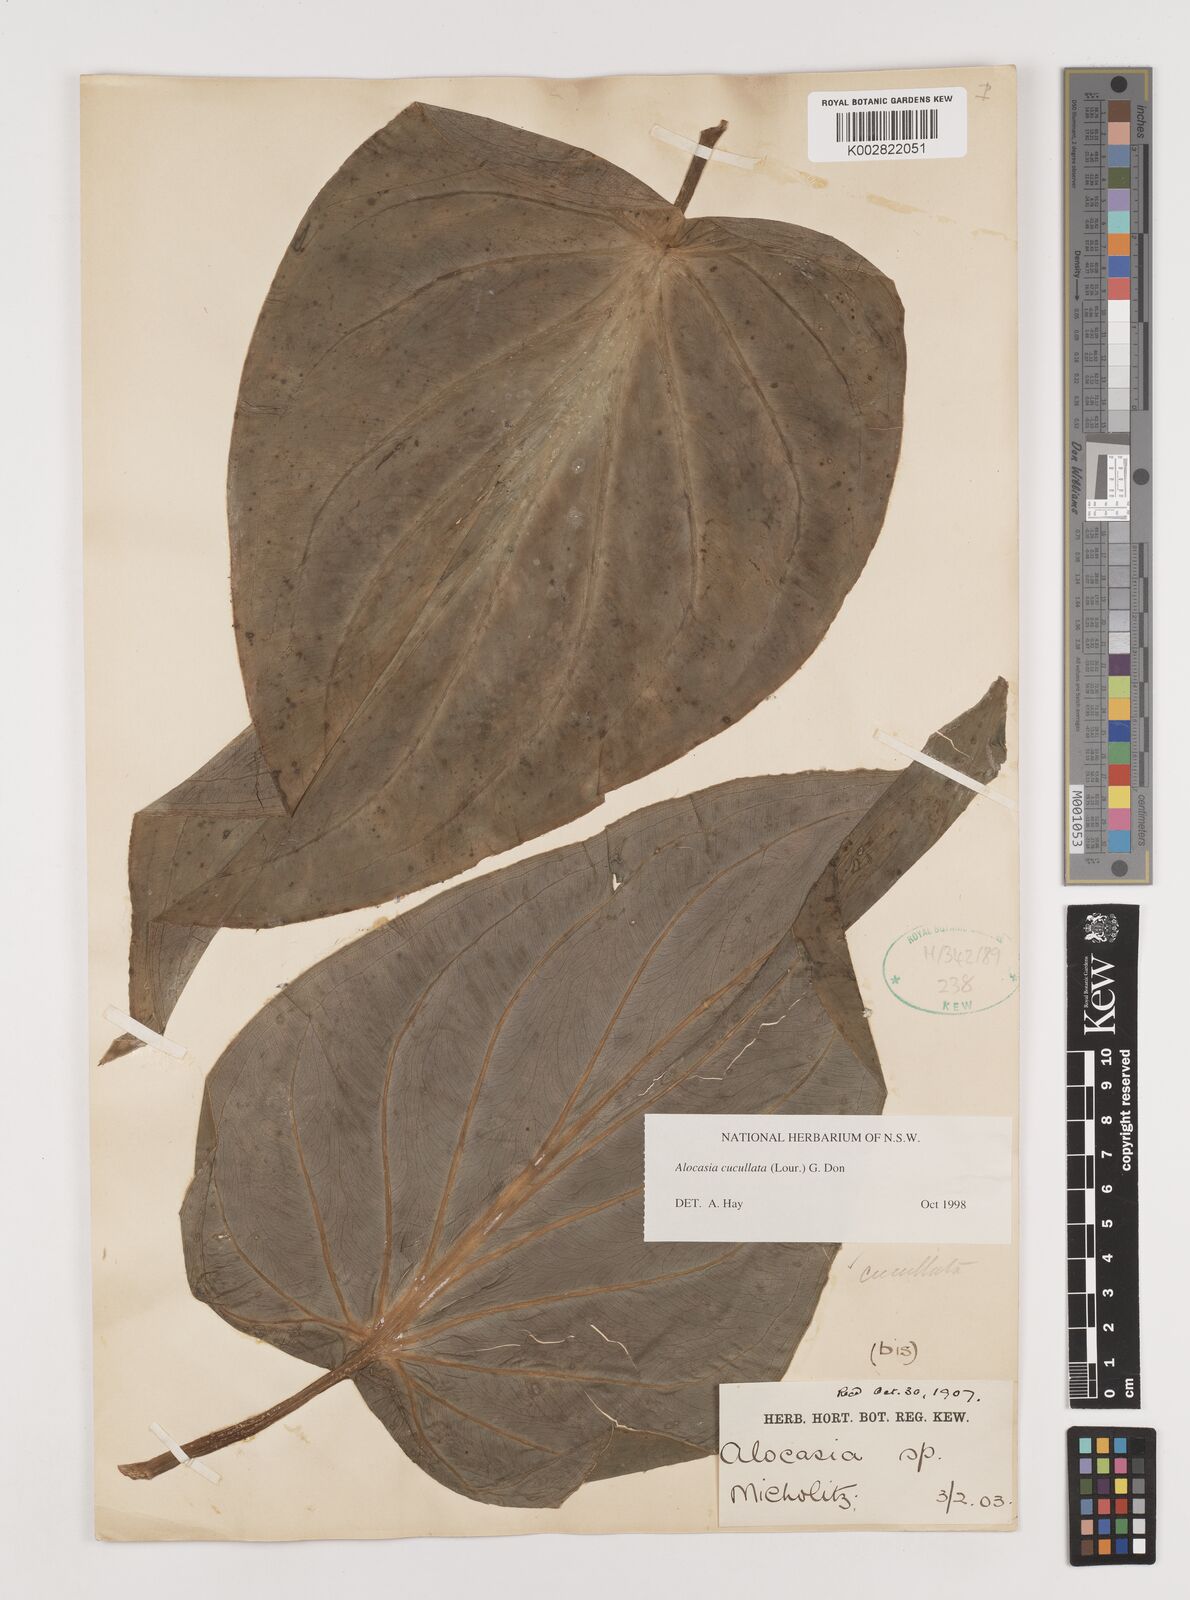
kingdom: Plantae
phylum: Tracheophyta
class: Liliopsida
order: Alismatales
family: Araceae
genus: Alocasia
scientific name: Alocasia cucullata
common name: Buddha's hand
